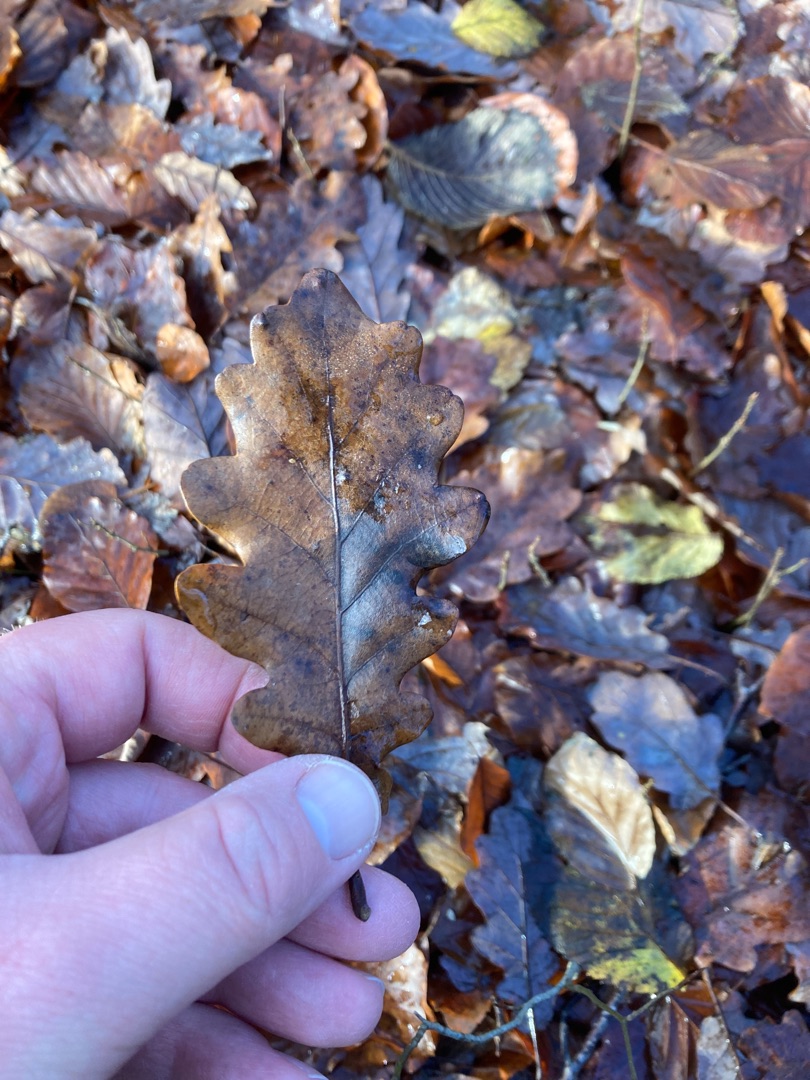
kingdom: Plantae
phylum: Tracheophyta
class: Magnoliopsida
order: Fagales
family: Fagaceae
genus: Quercus
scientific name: Quercus robur
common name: Stilk-eg/almindelig eg
